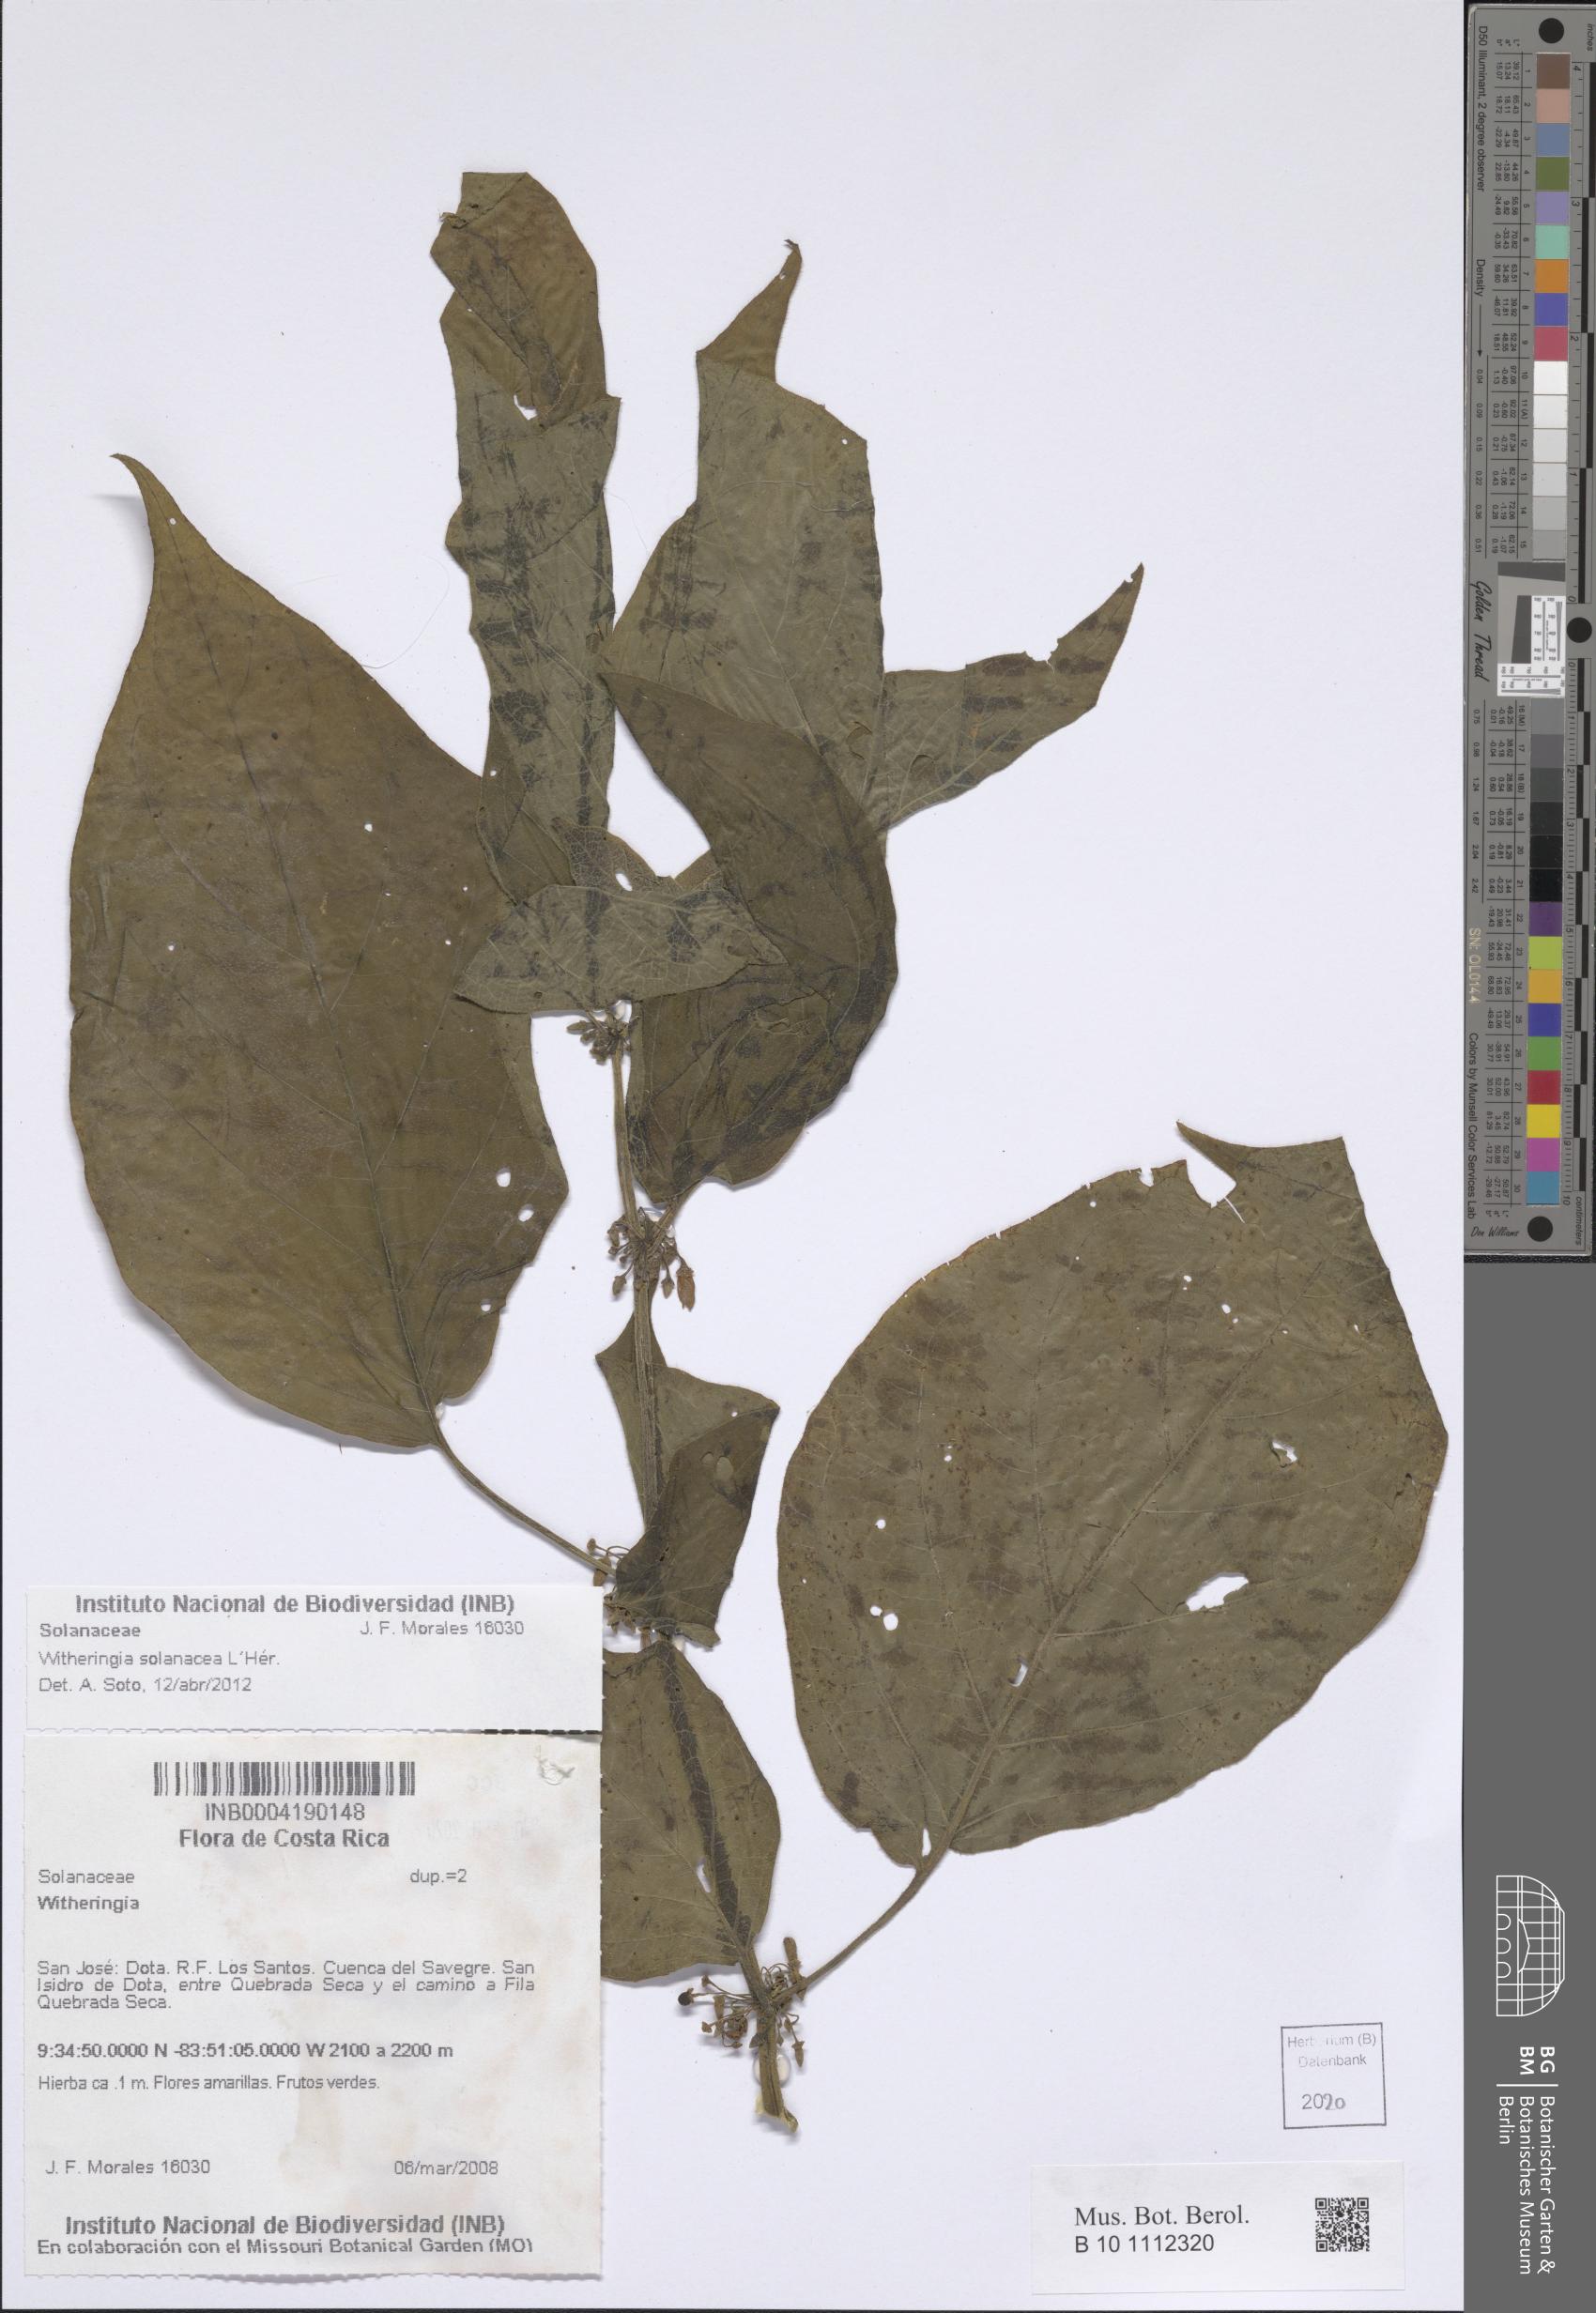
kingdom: Plantae
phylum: Tracheophyta
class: Magnoliopsida
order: Solanales
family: Solanaceae
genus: Witheringia
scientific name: Witheringia solanacea
